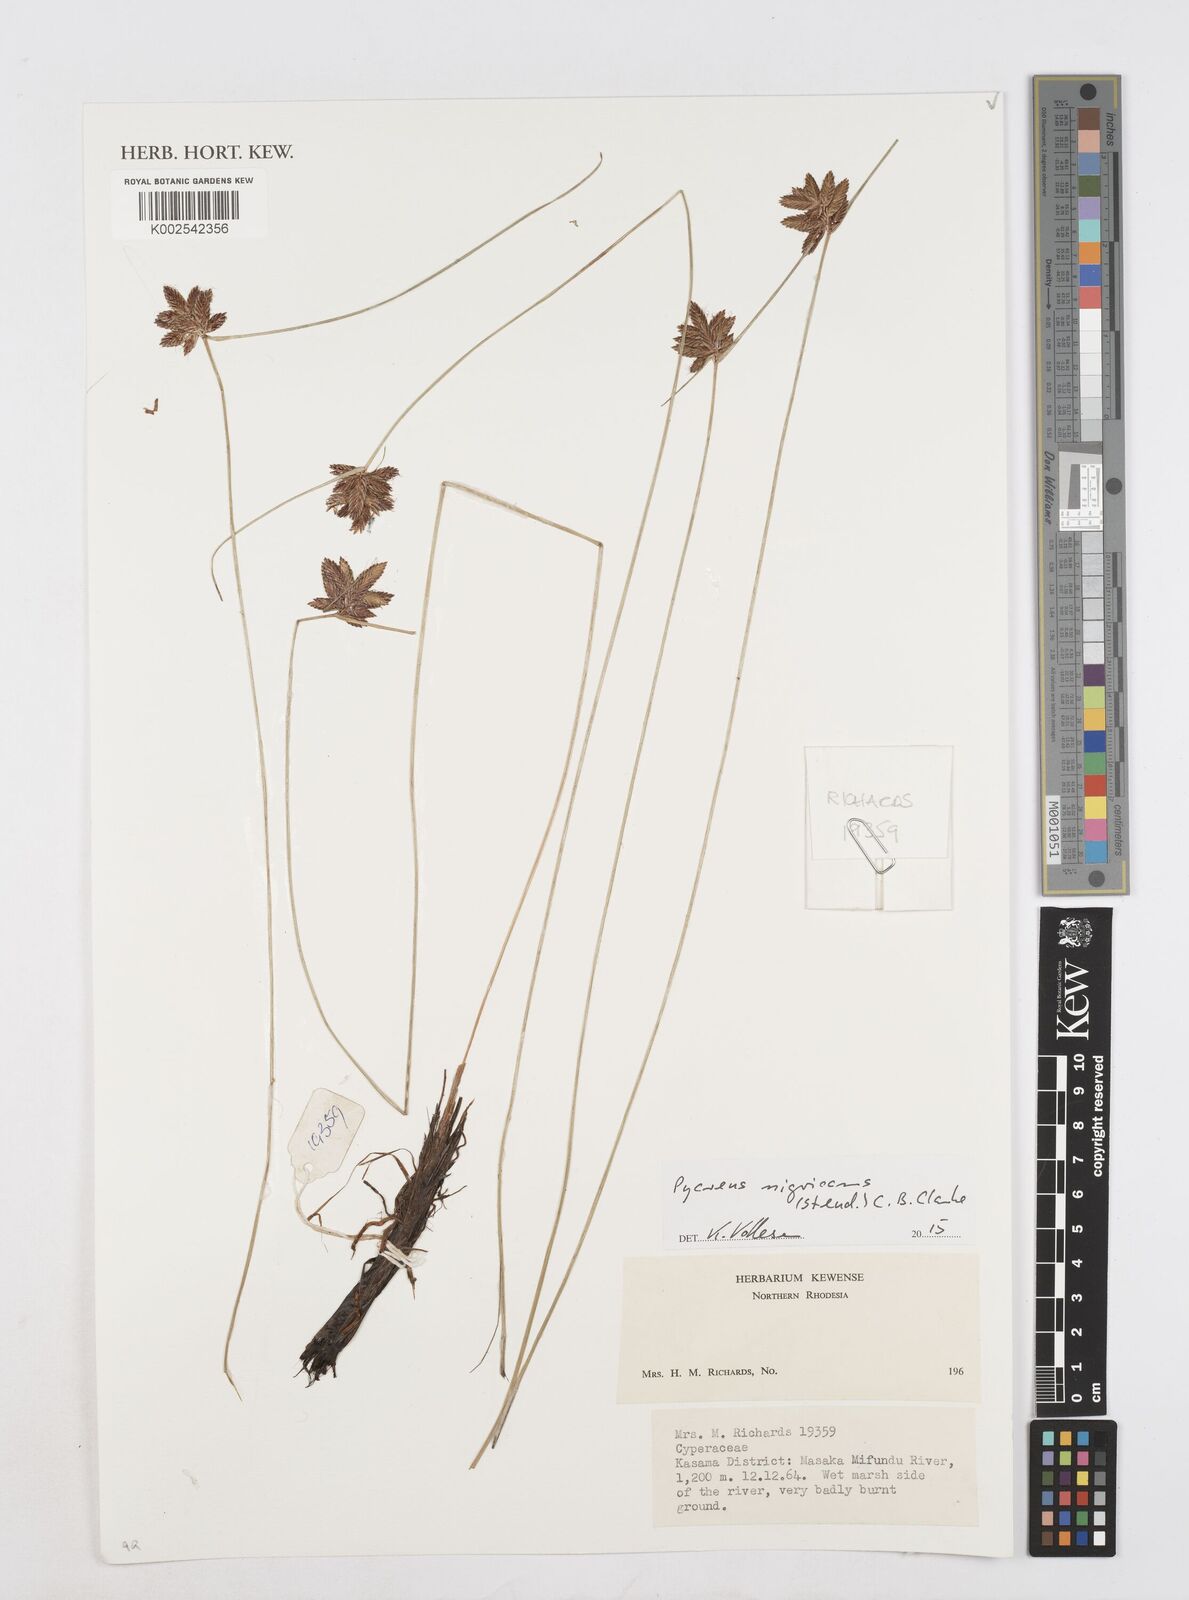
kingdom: Plantae
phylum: Tracheophyta
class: Liliopsida
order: Poales
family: Cyperaceae
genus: Cyperus
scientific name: Cyperus nigricans
